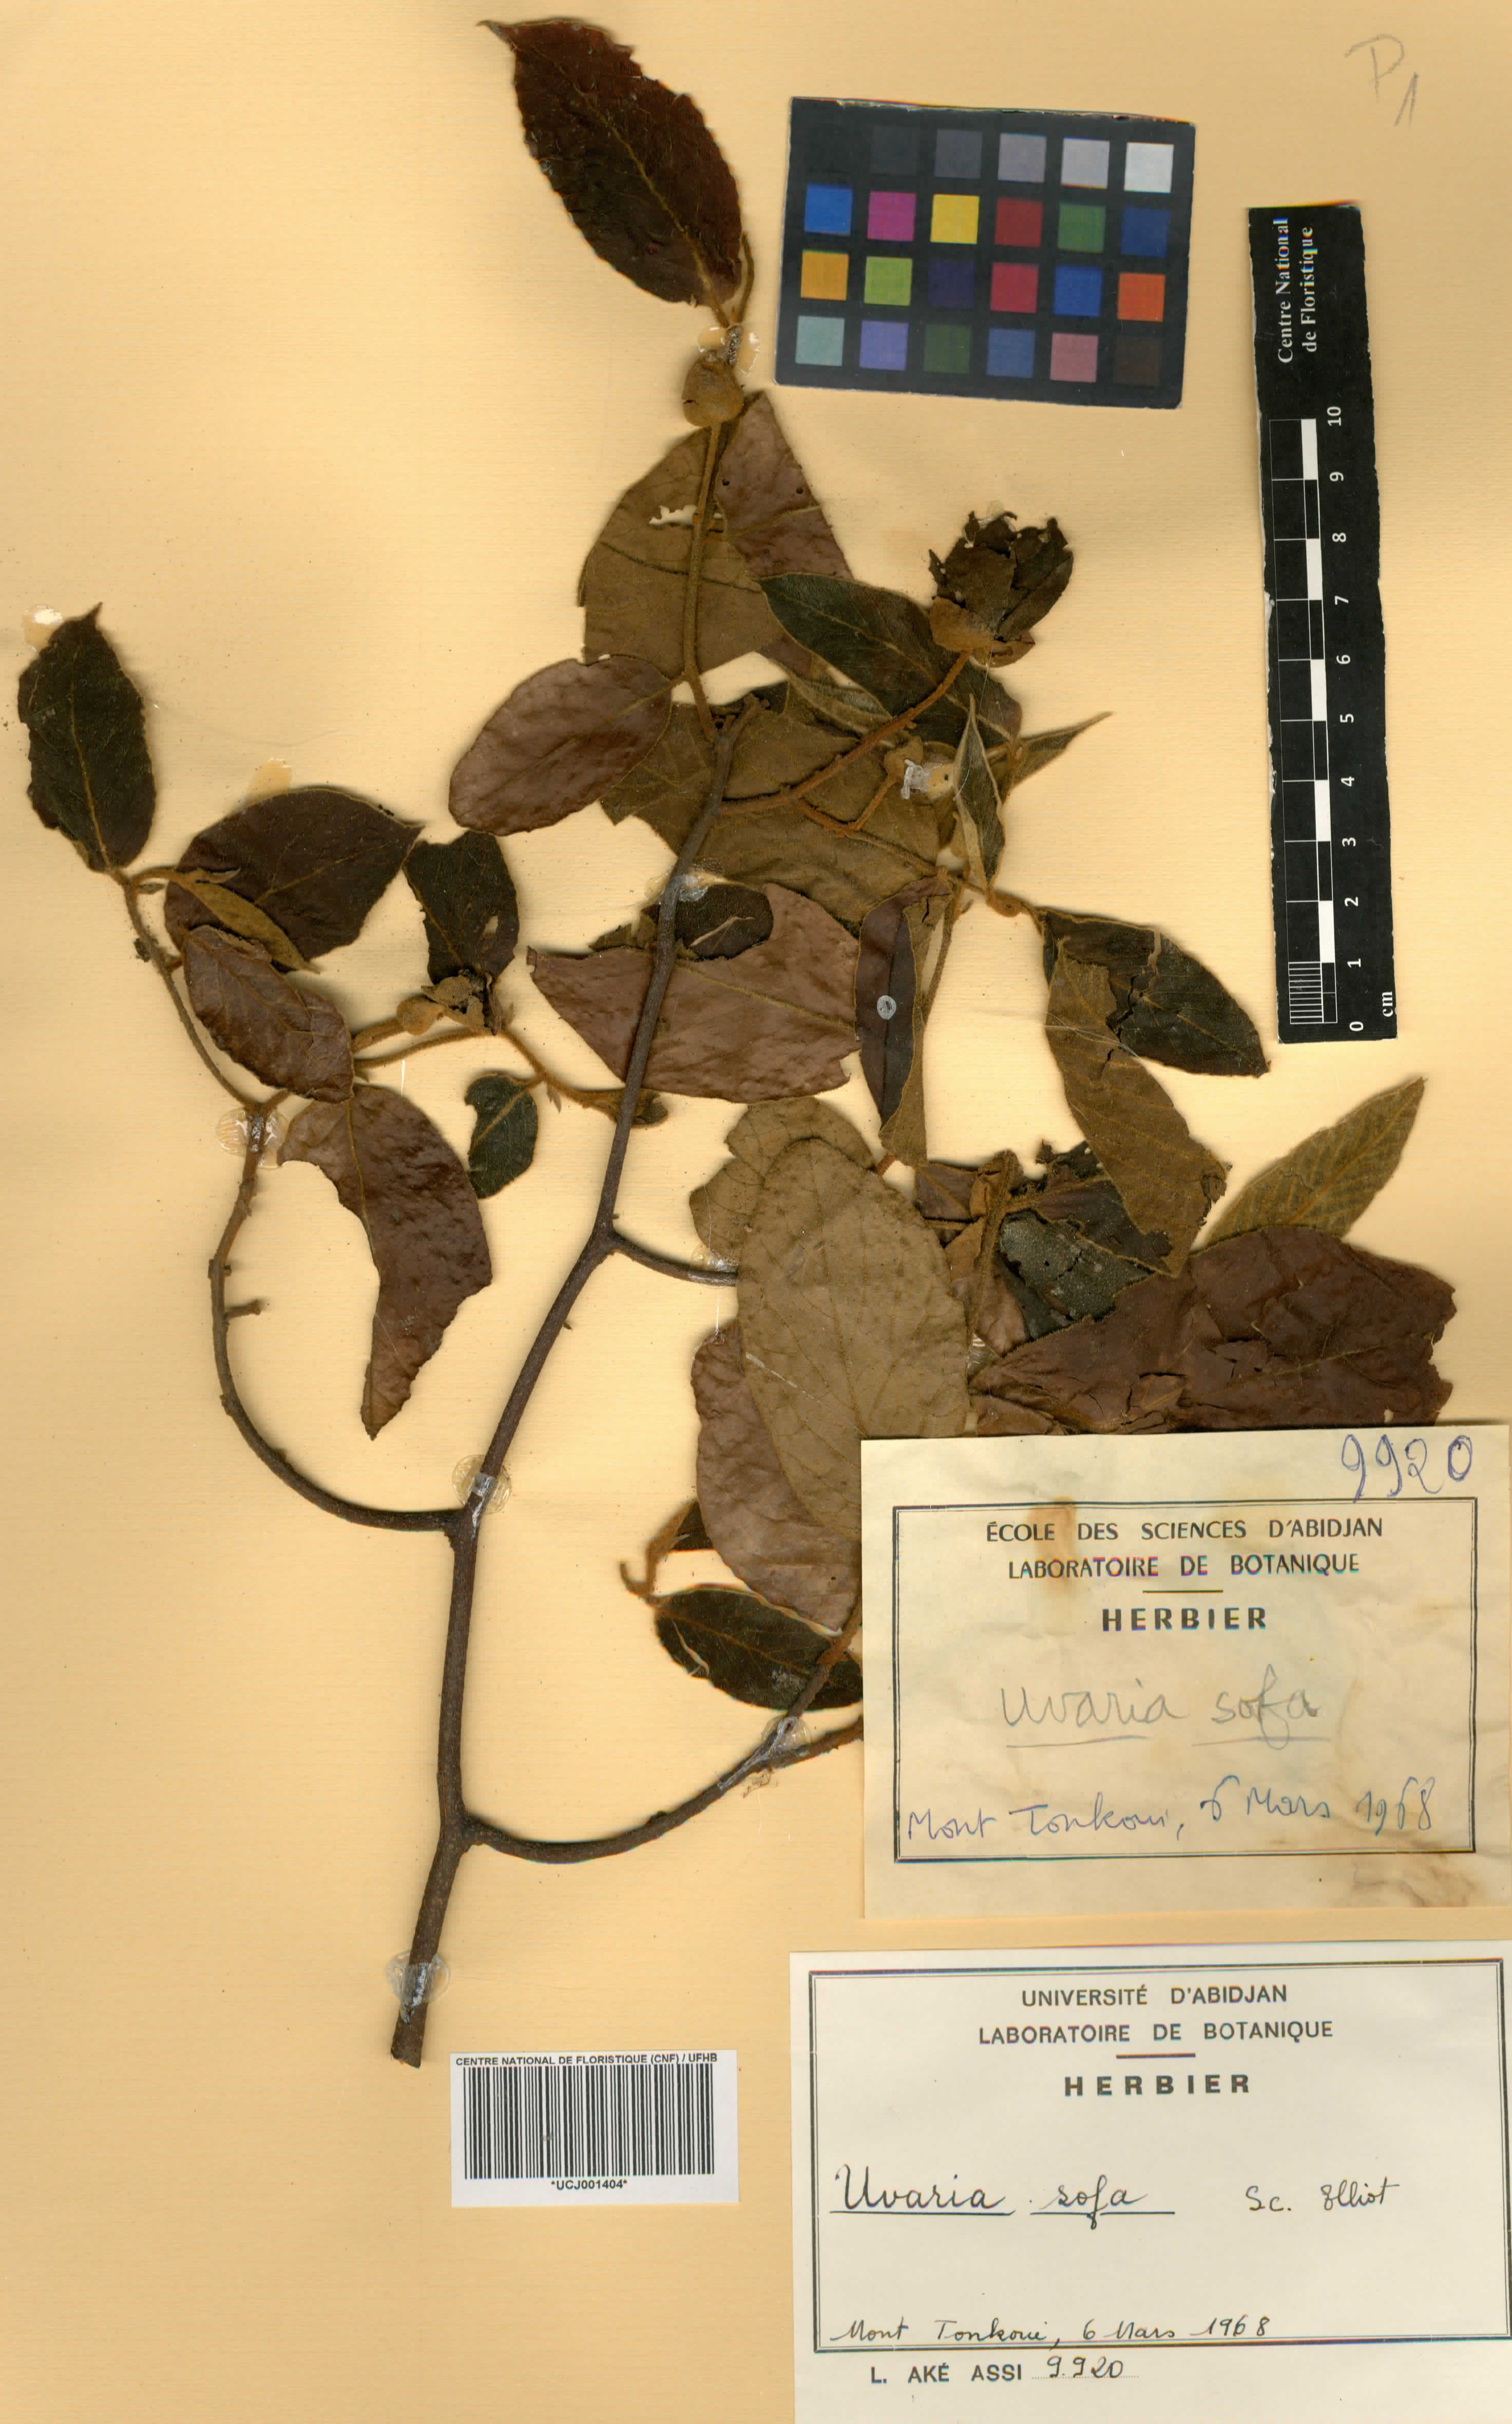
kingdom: Plantae
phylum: Tracheophyta
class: Magnoliopsida
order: Magnoliales
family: Annonaceae
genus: Uvaria
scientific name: Uvaria sofa
